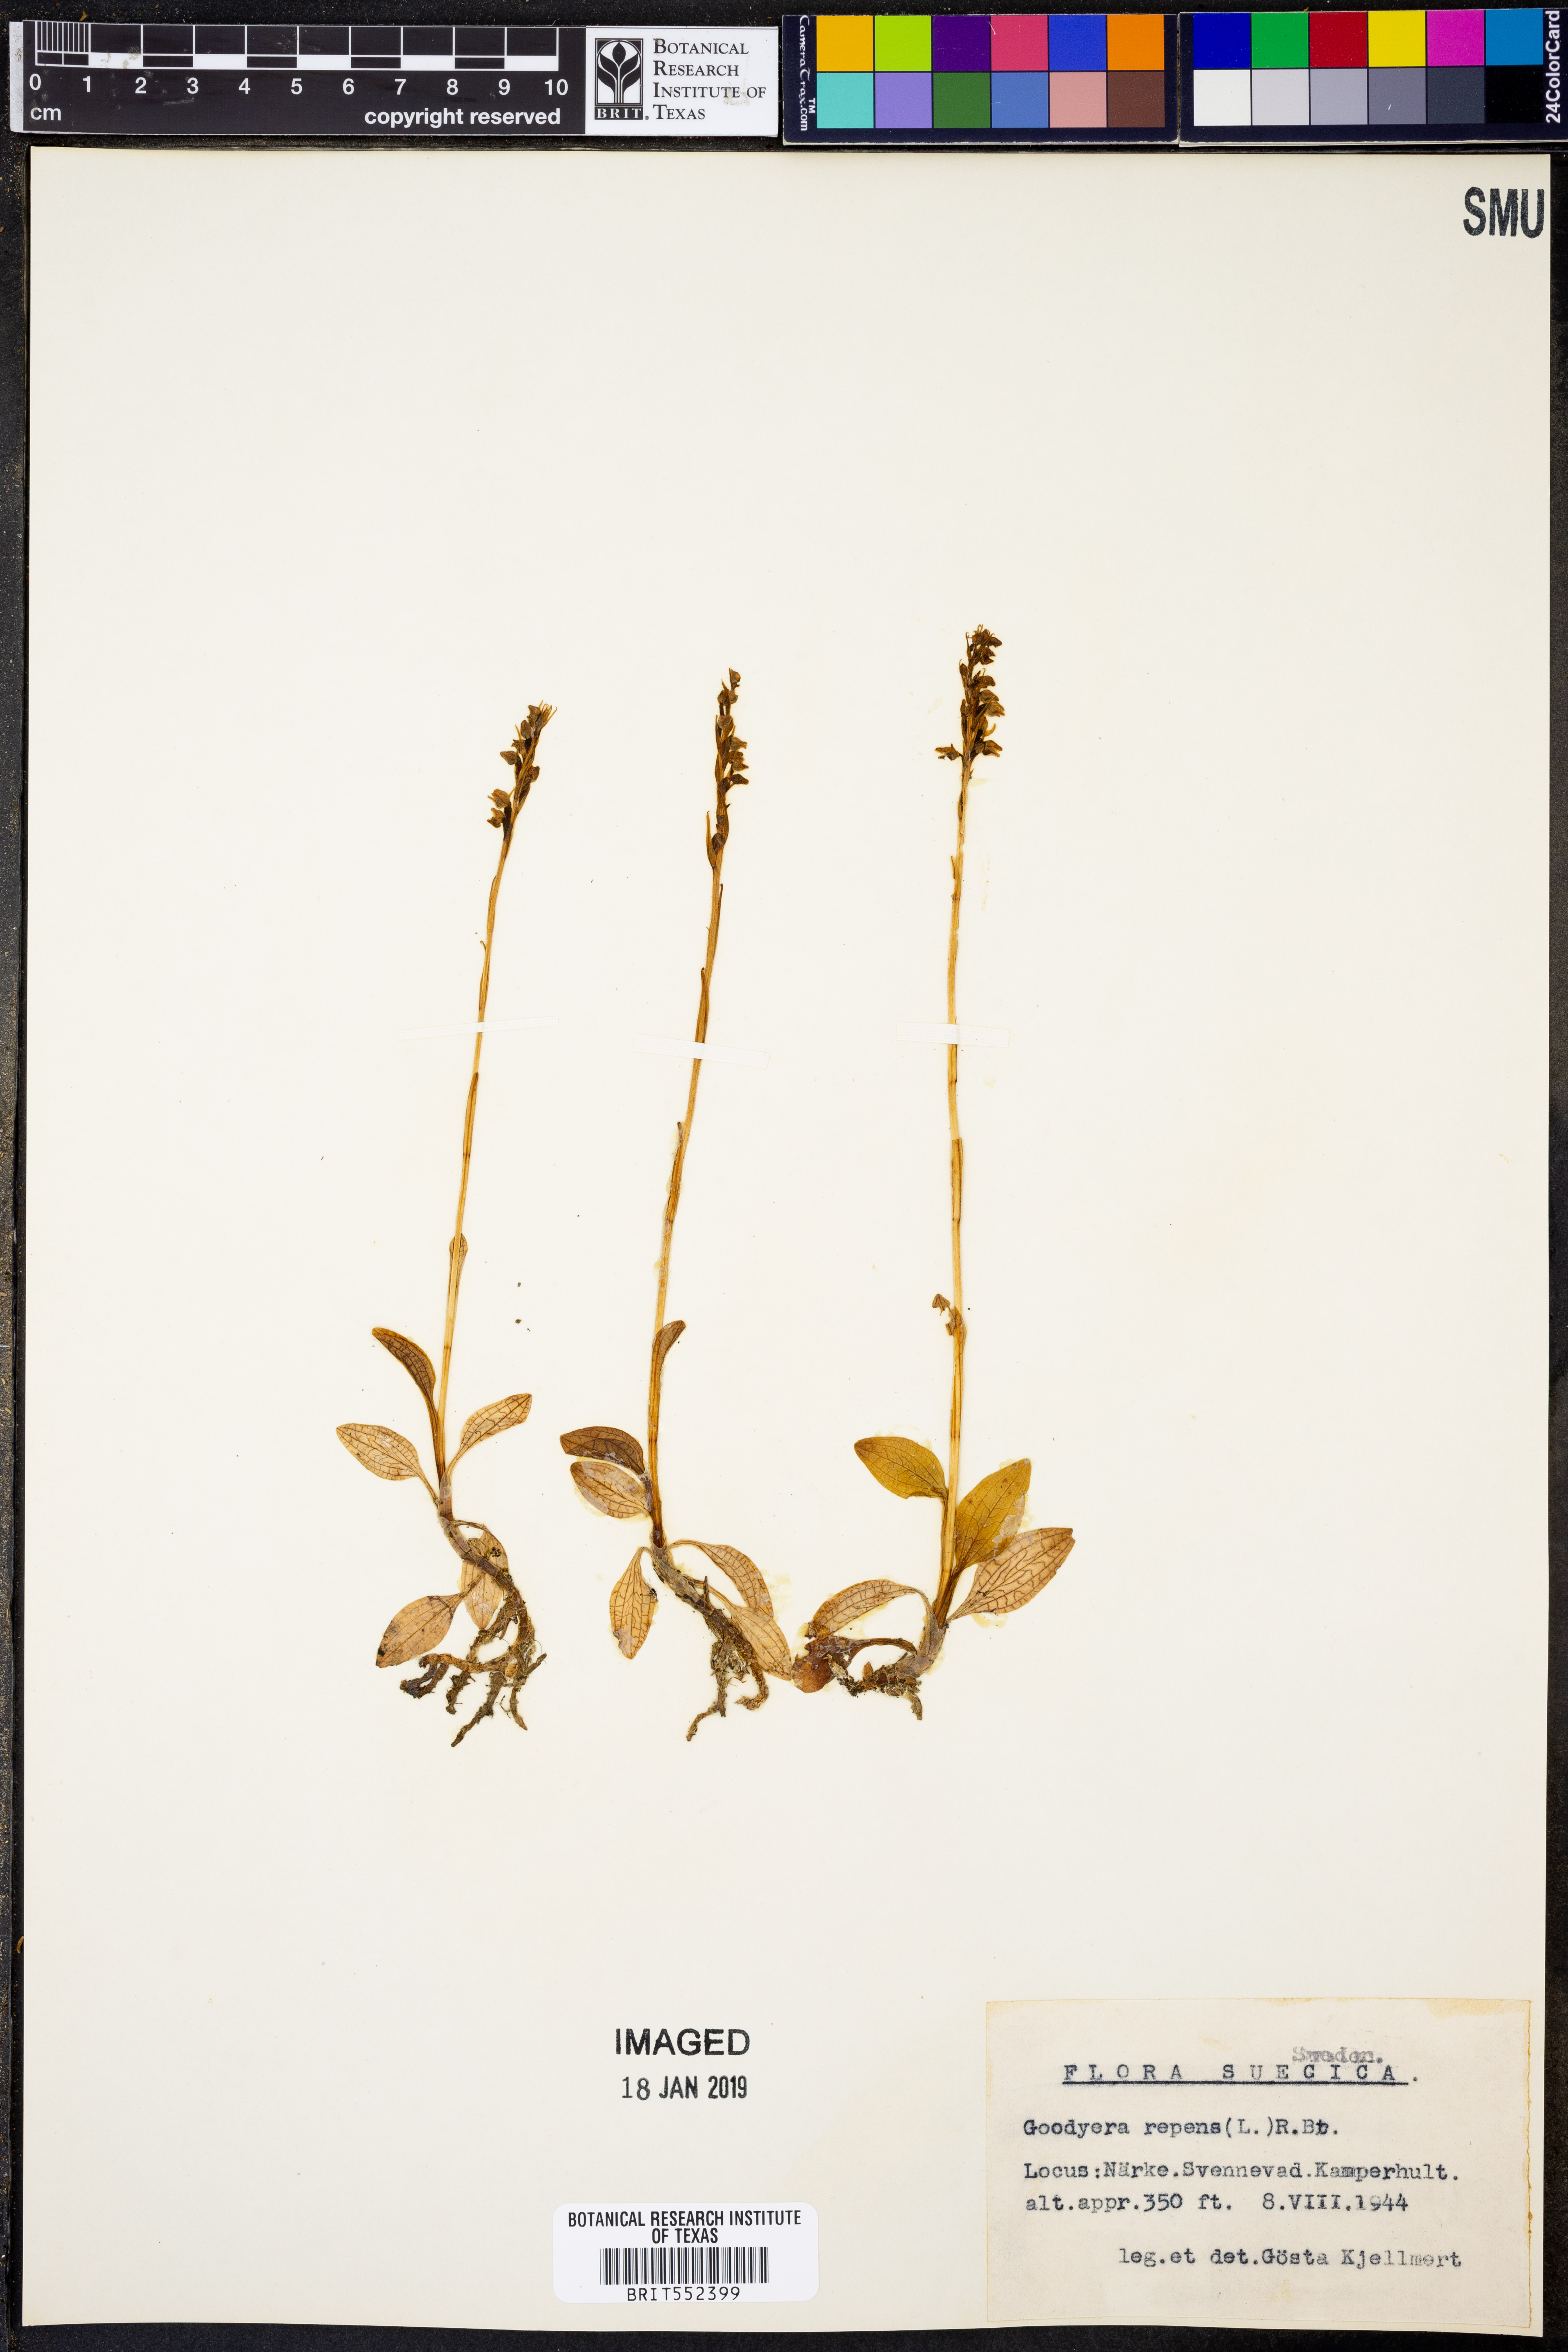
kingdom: Plantae
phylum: Tracheophyta
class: Liliopsida
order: Asparagales
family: Orchidaceae
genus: Goodyera
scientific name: Goodyera repens
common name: Creeping lady's-tresses
